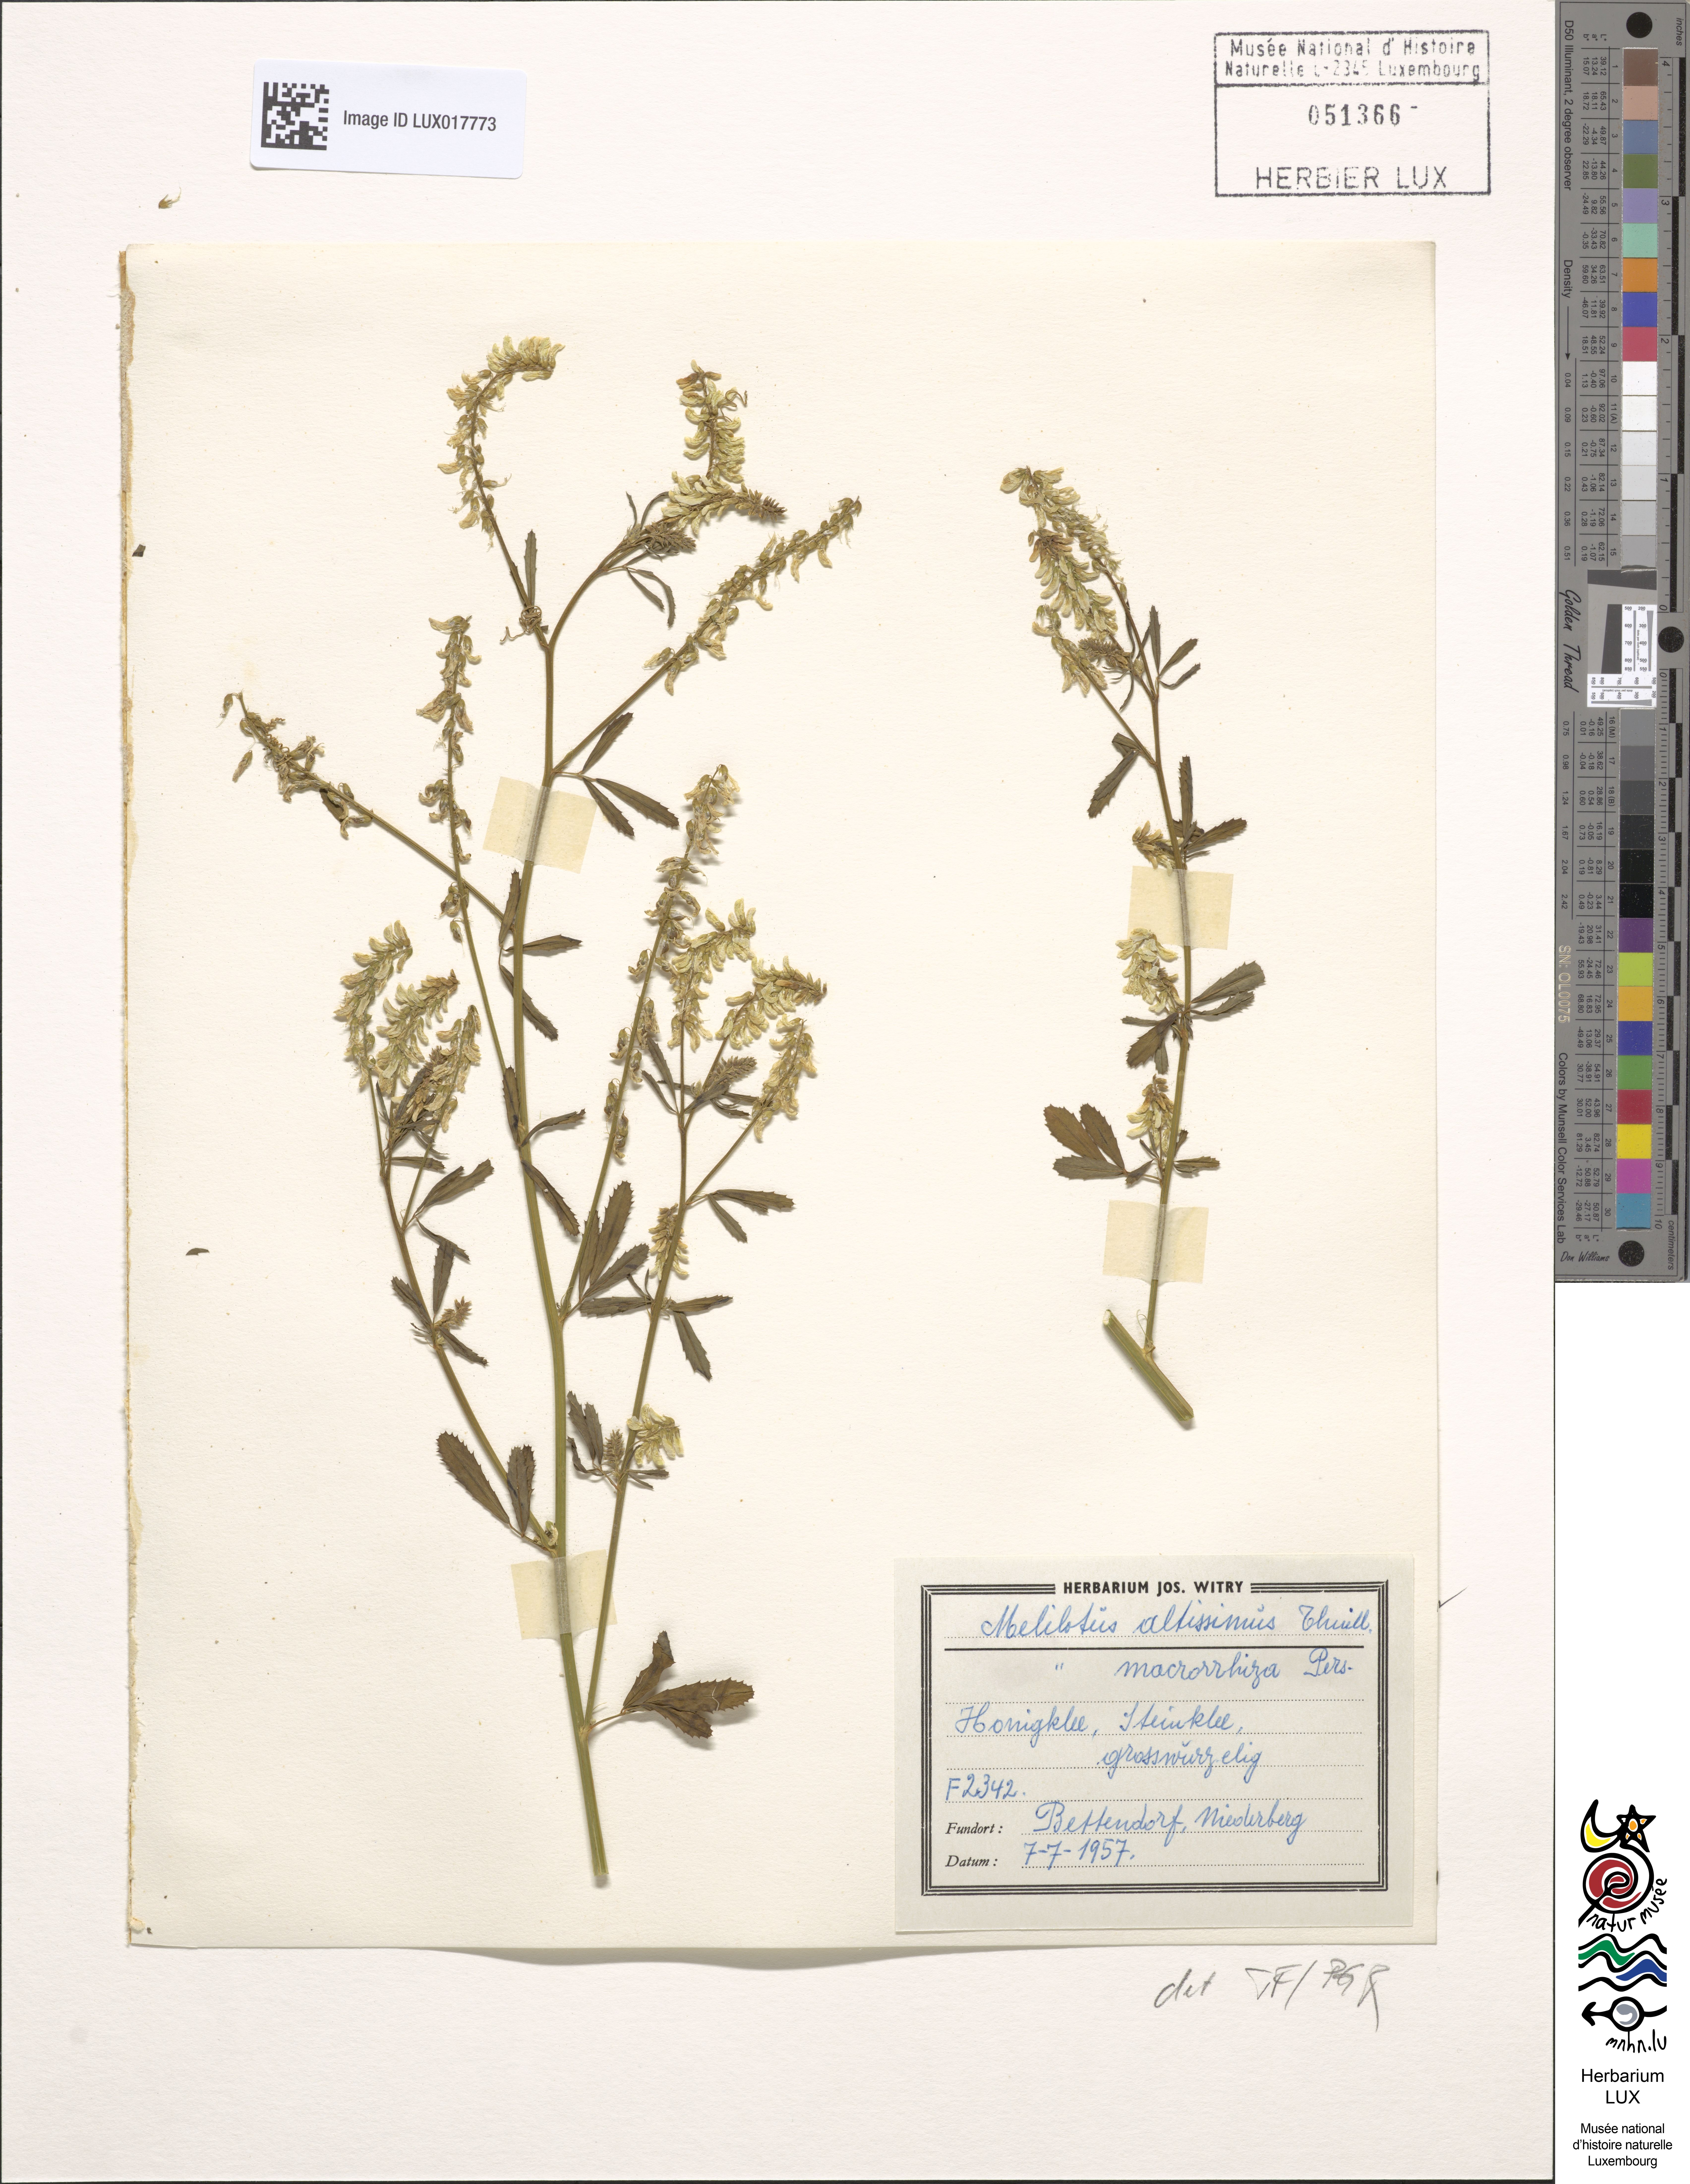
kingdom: Plantae
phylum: Tracheophyta
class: Magnoliopsida
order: Fabales
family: Fabaceae
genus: Melilotus
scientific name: Melilotus altissimus
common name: Tall melilot
